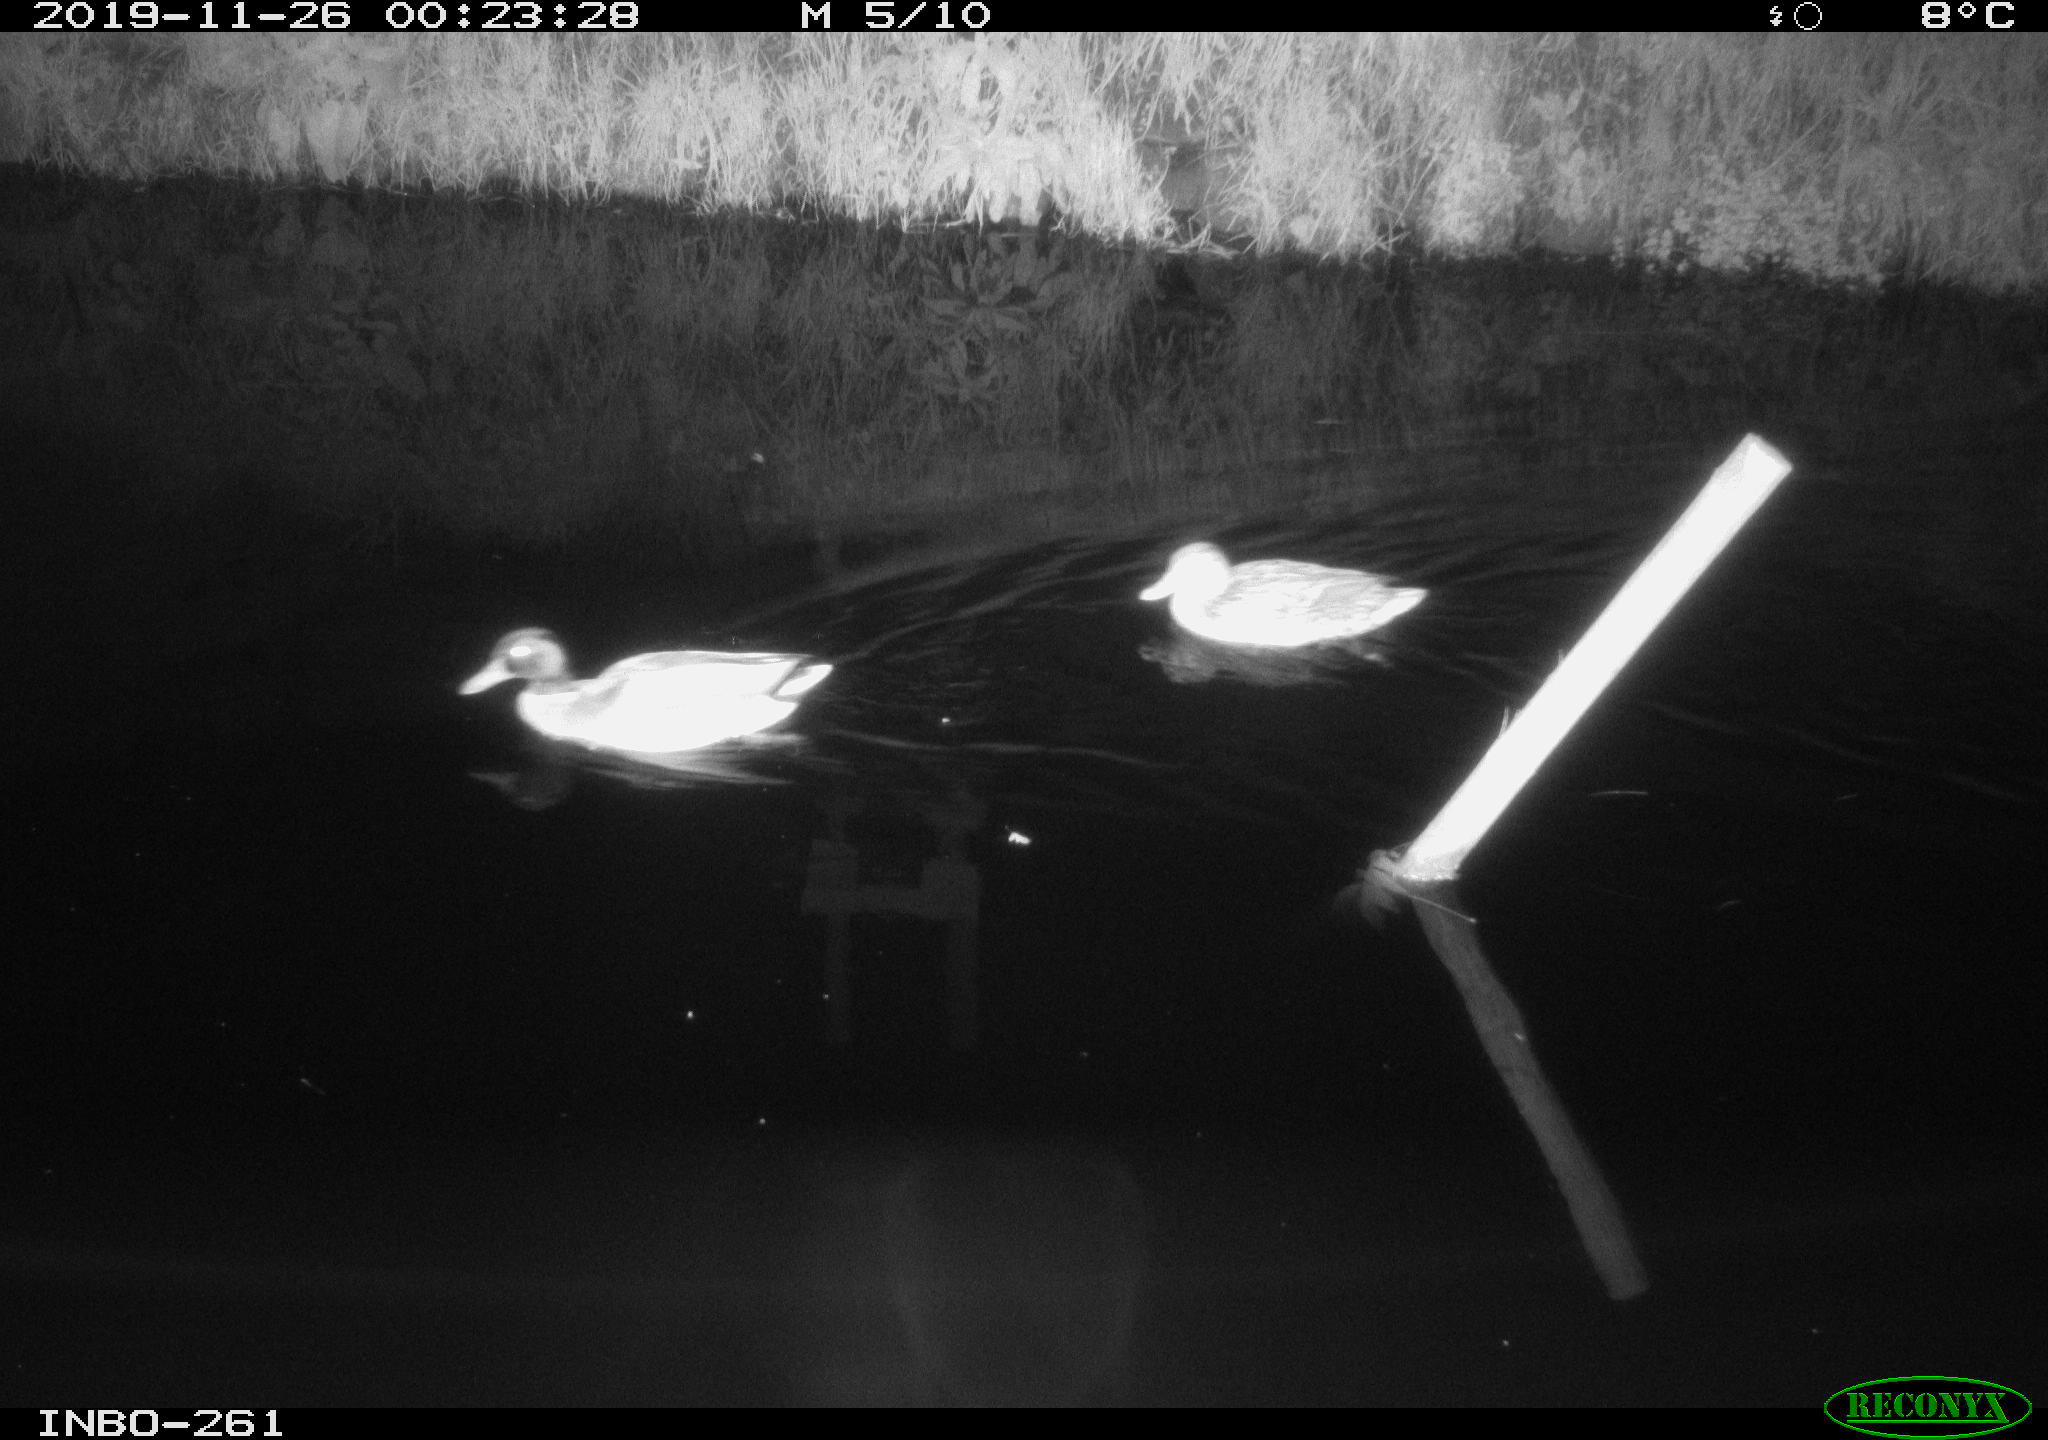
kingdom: Animalia
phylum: Chordata
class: Aves
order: Anseriformes
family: Anatidae
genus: Anas
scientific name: Anas platyrhynchos
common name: Mallard
